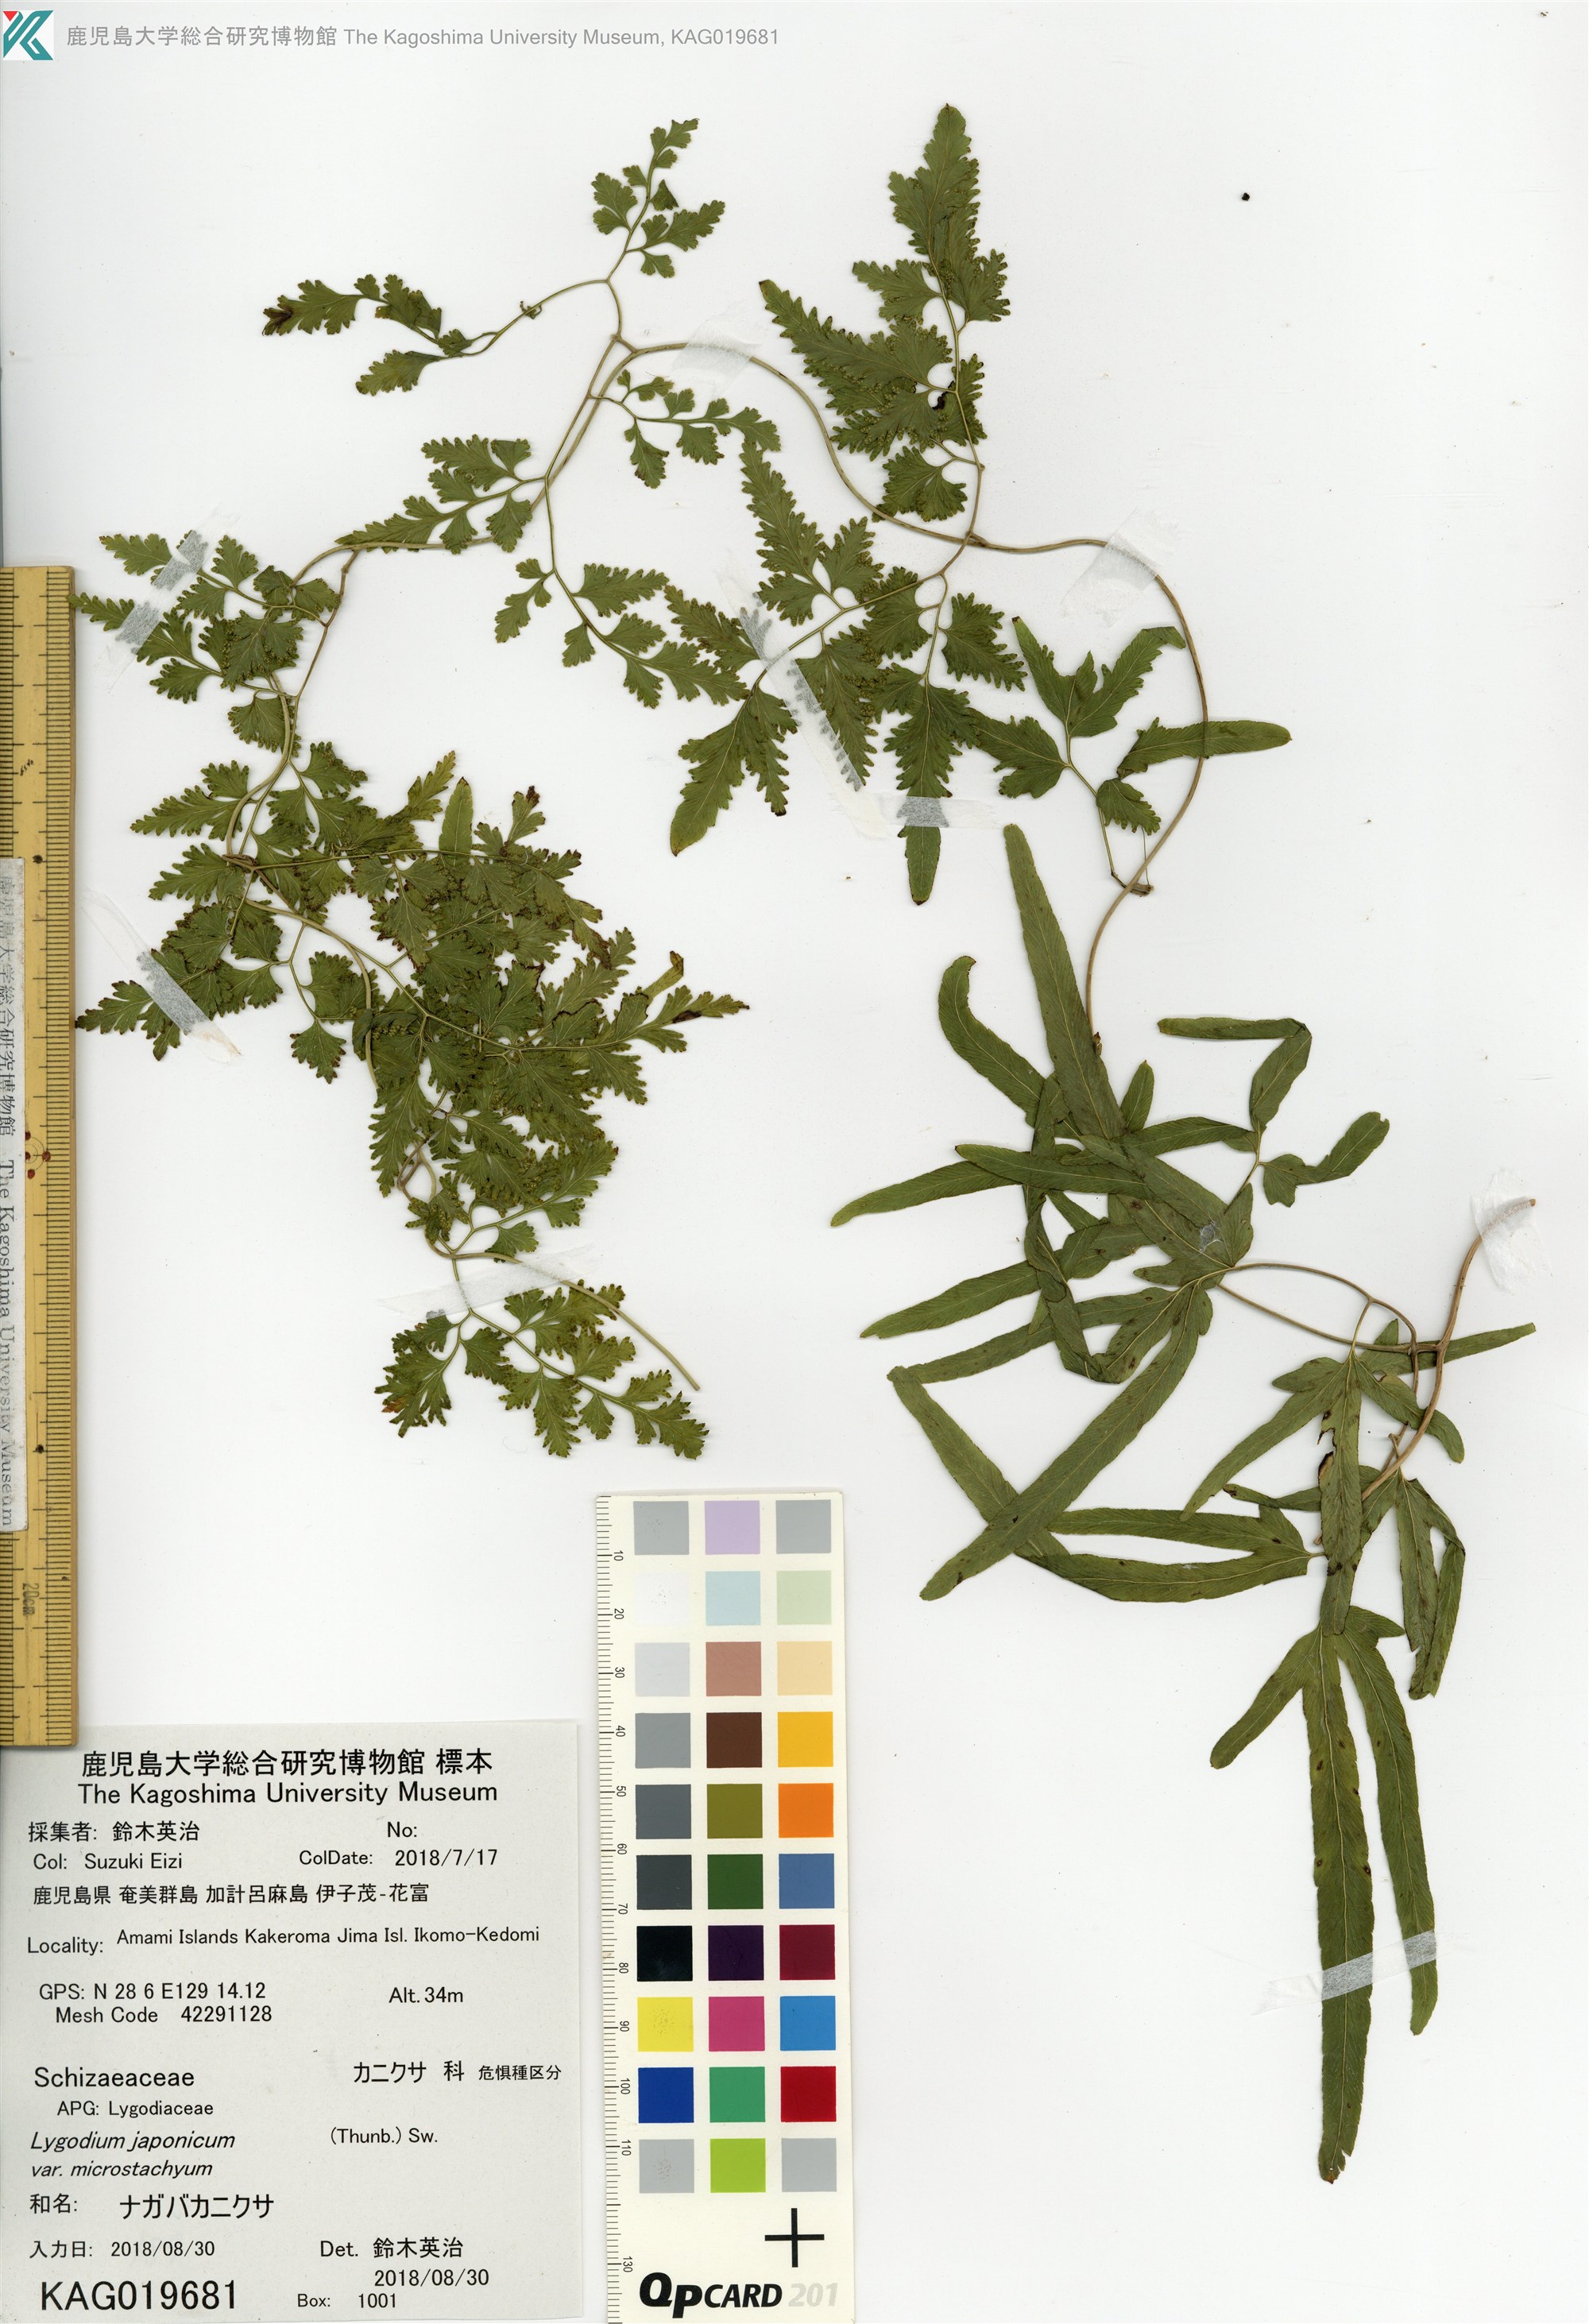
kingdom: Plantae
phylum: Tracheophyta
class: Polypodiopsida
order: Schizaeales
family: Lygodiaceae
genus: Lygodium
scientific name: Lygodium japonicum
